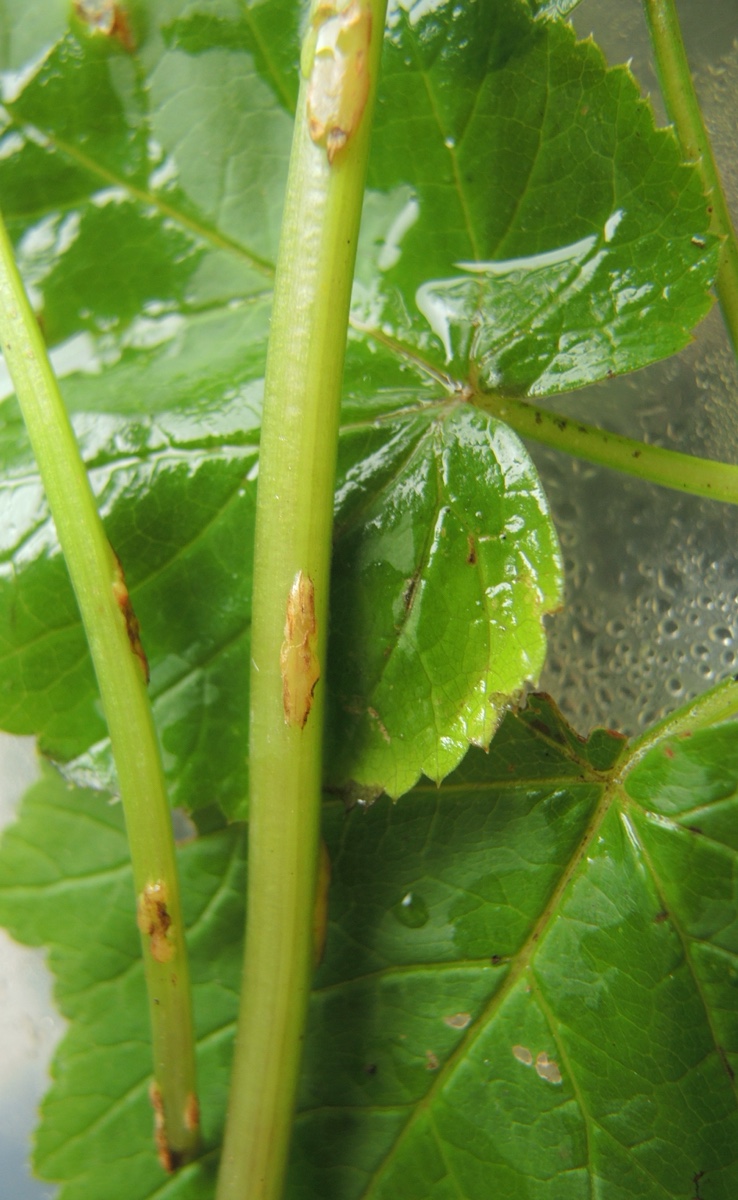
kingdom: Fungi
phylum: Ascomycota
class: Taphrinomycetes
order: Taphrinales
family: Taphrinaceae
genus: Protomyces
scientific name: Protomyces macrosporus
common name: skvalderkål-vablesæk
